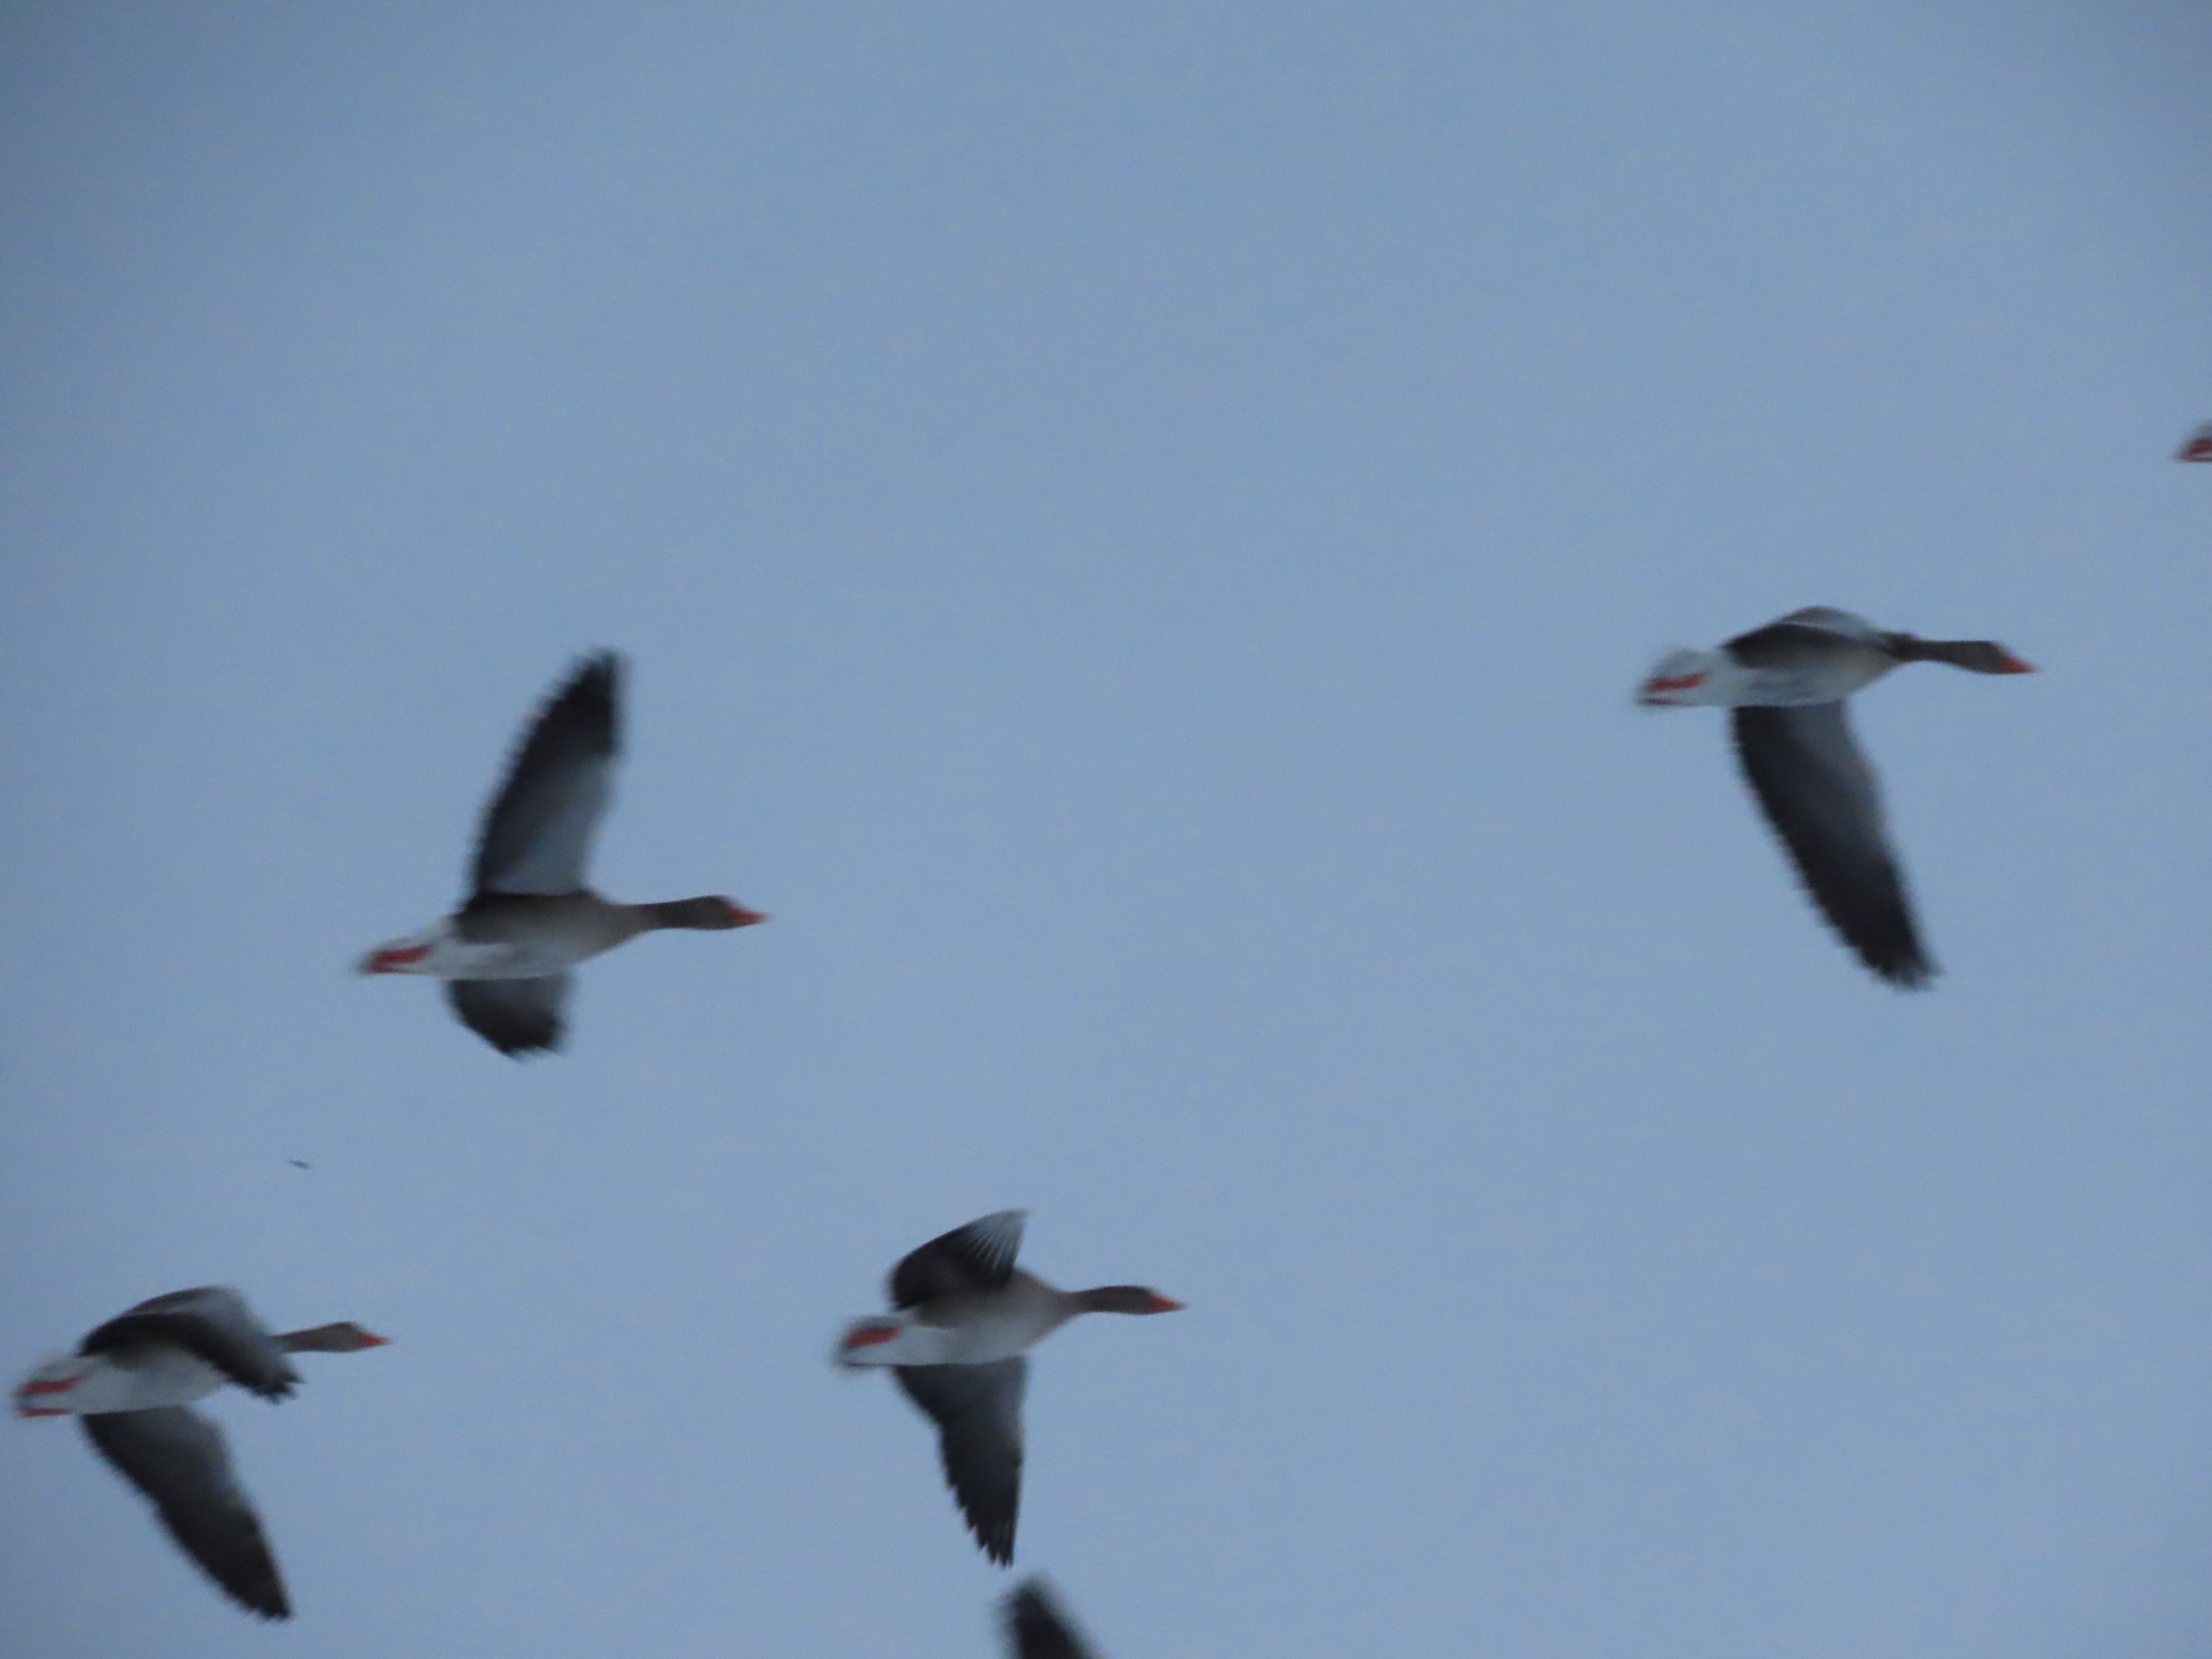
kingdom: Animalia
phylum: Chordata
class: Aves
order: Anseriformes
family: Anatidae
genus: Anser
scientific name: Anser anser
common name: Grågås
